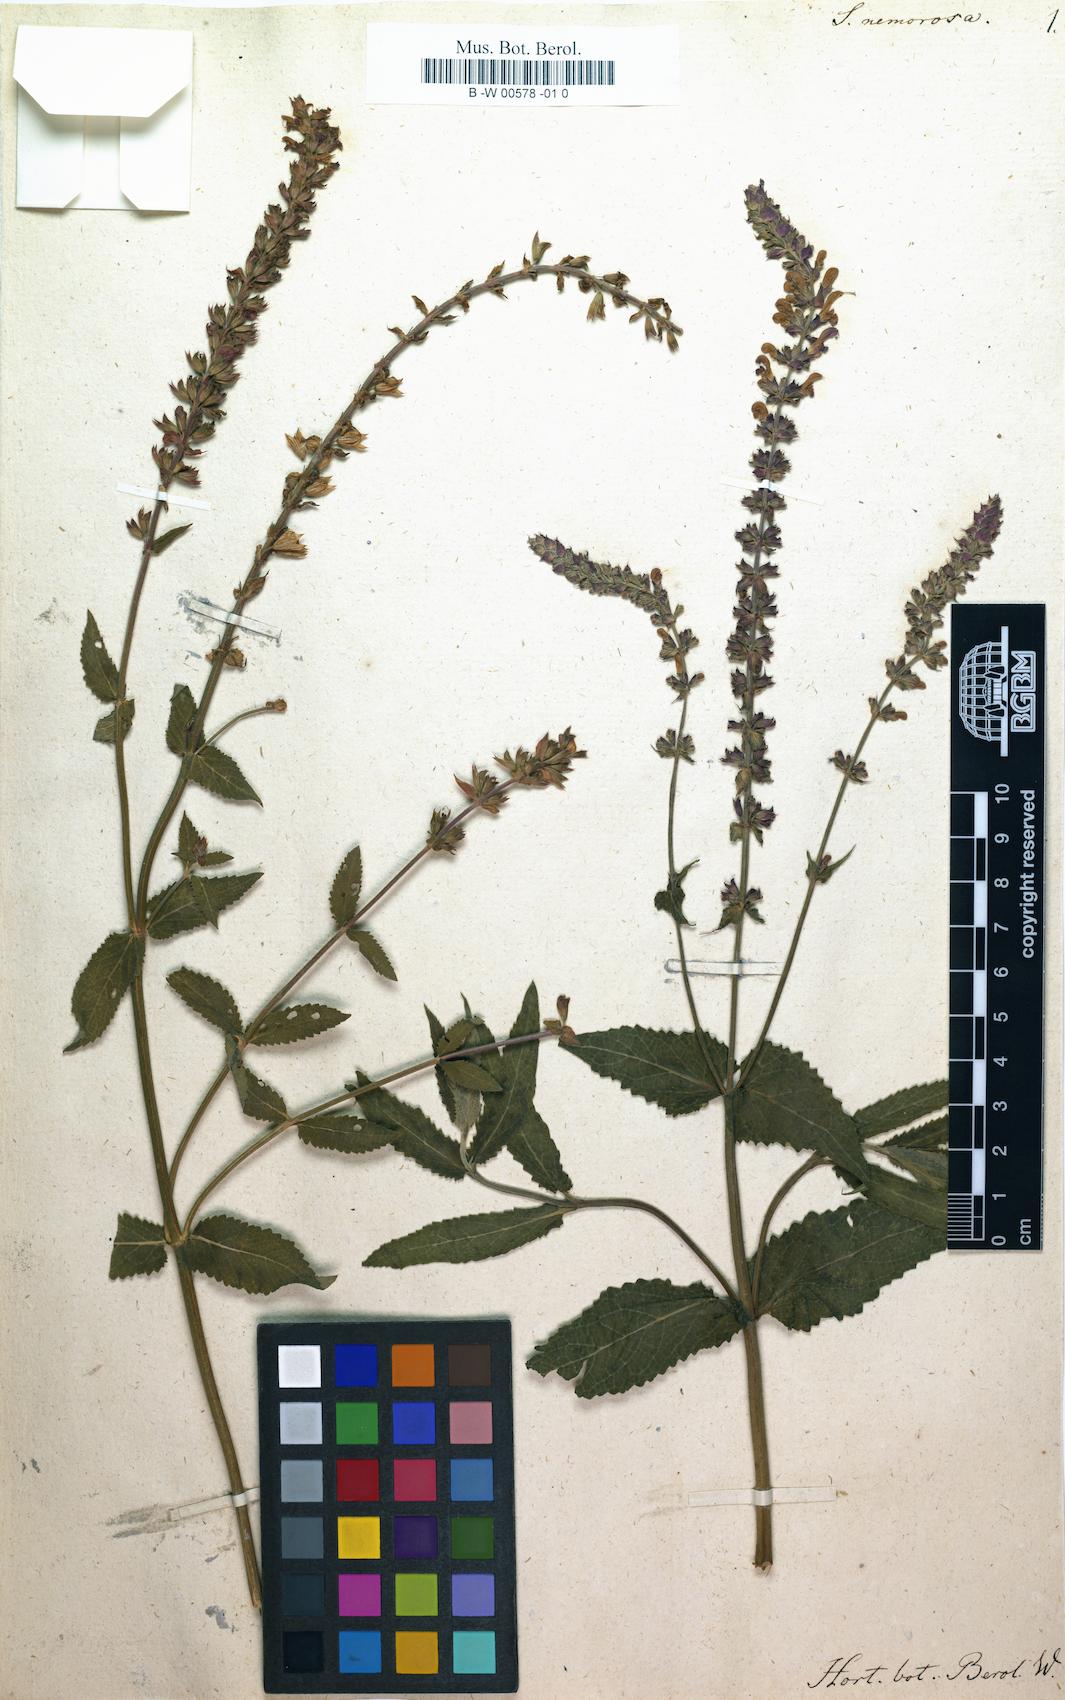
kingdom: Plantae
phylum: Tracheophyta
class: Magnoliopsida
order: Lamiales
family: Lamiaceae
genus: Salvia
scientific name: Salvia nemorosa
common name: Balkan clary
